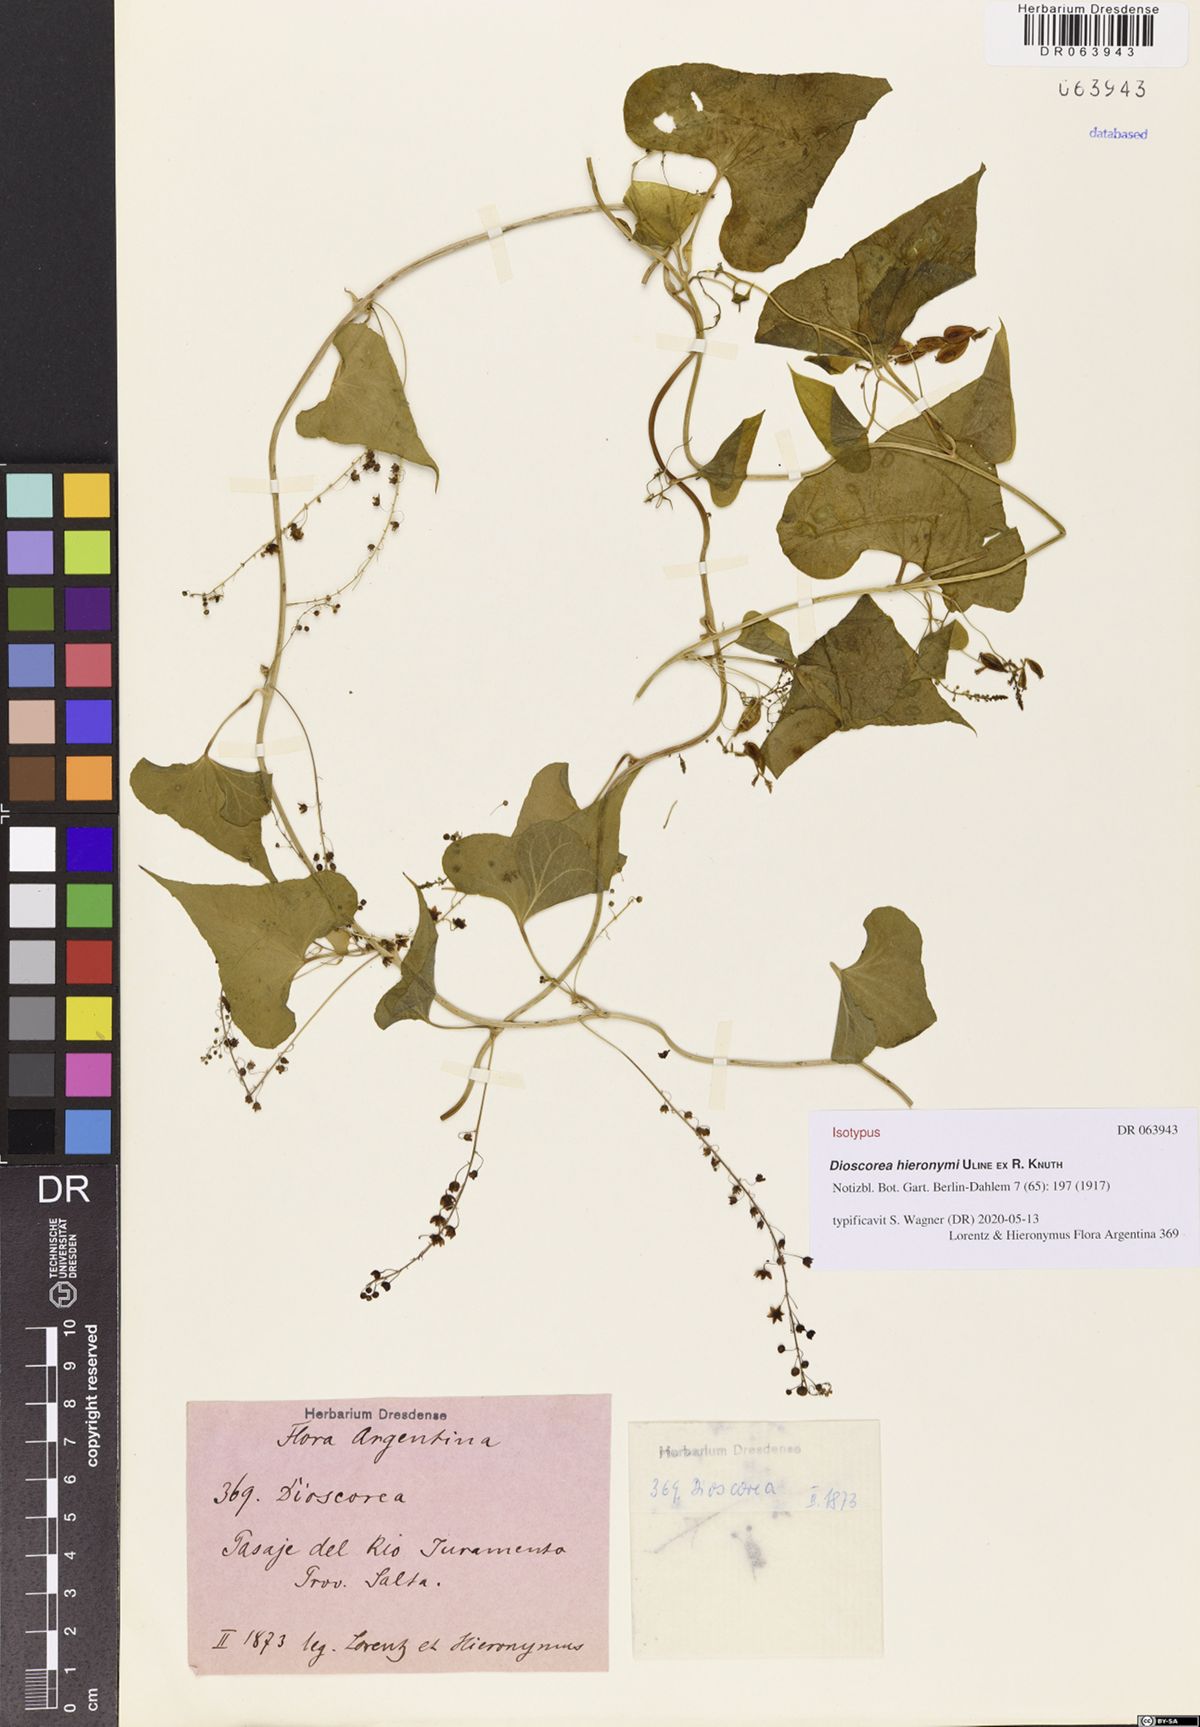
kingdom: Plantae
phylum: Tracheophyta
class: Liliopsida
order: Dioscoreales
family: Dioscoreaceae
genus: Dioscorea
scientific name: Dioscorea hieronymi
